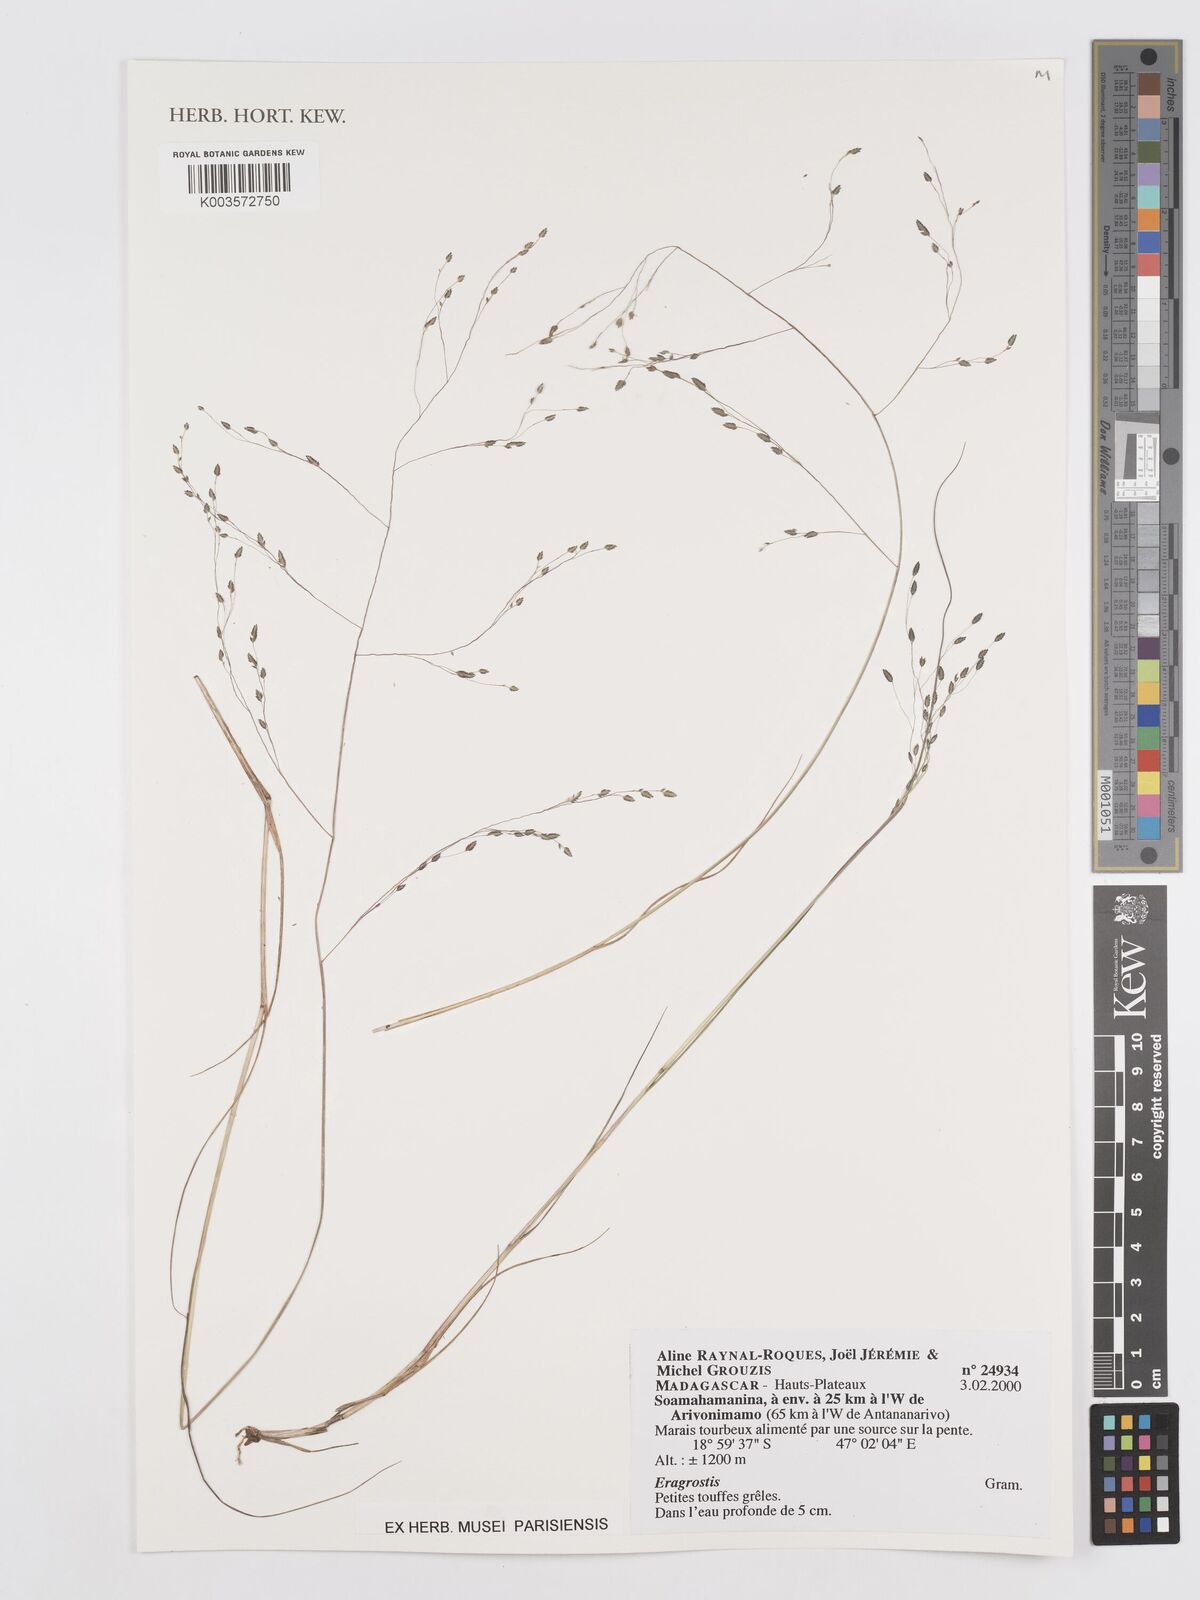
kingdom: Plantae
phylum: Tracheophyta
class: Liliopsida
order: Poales
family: Poaceae
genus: Eragrostis
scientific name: Eragrostis
